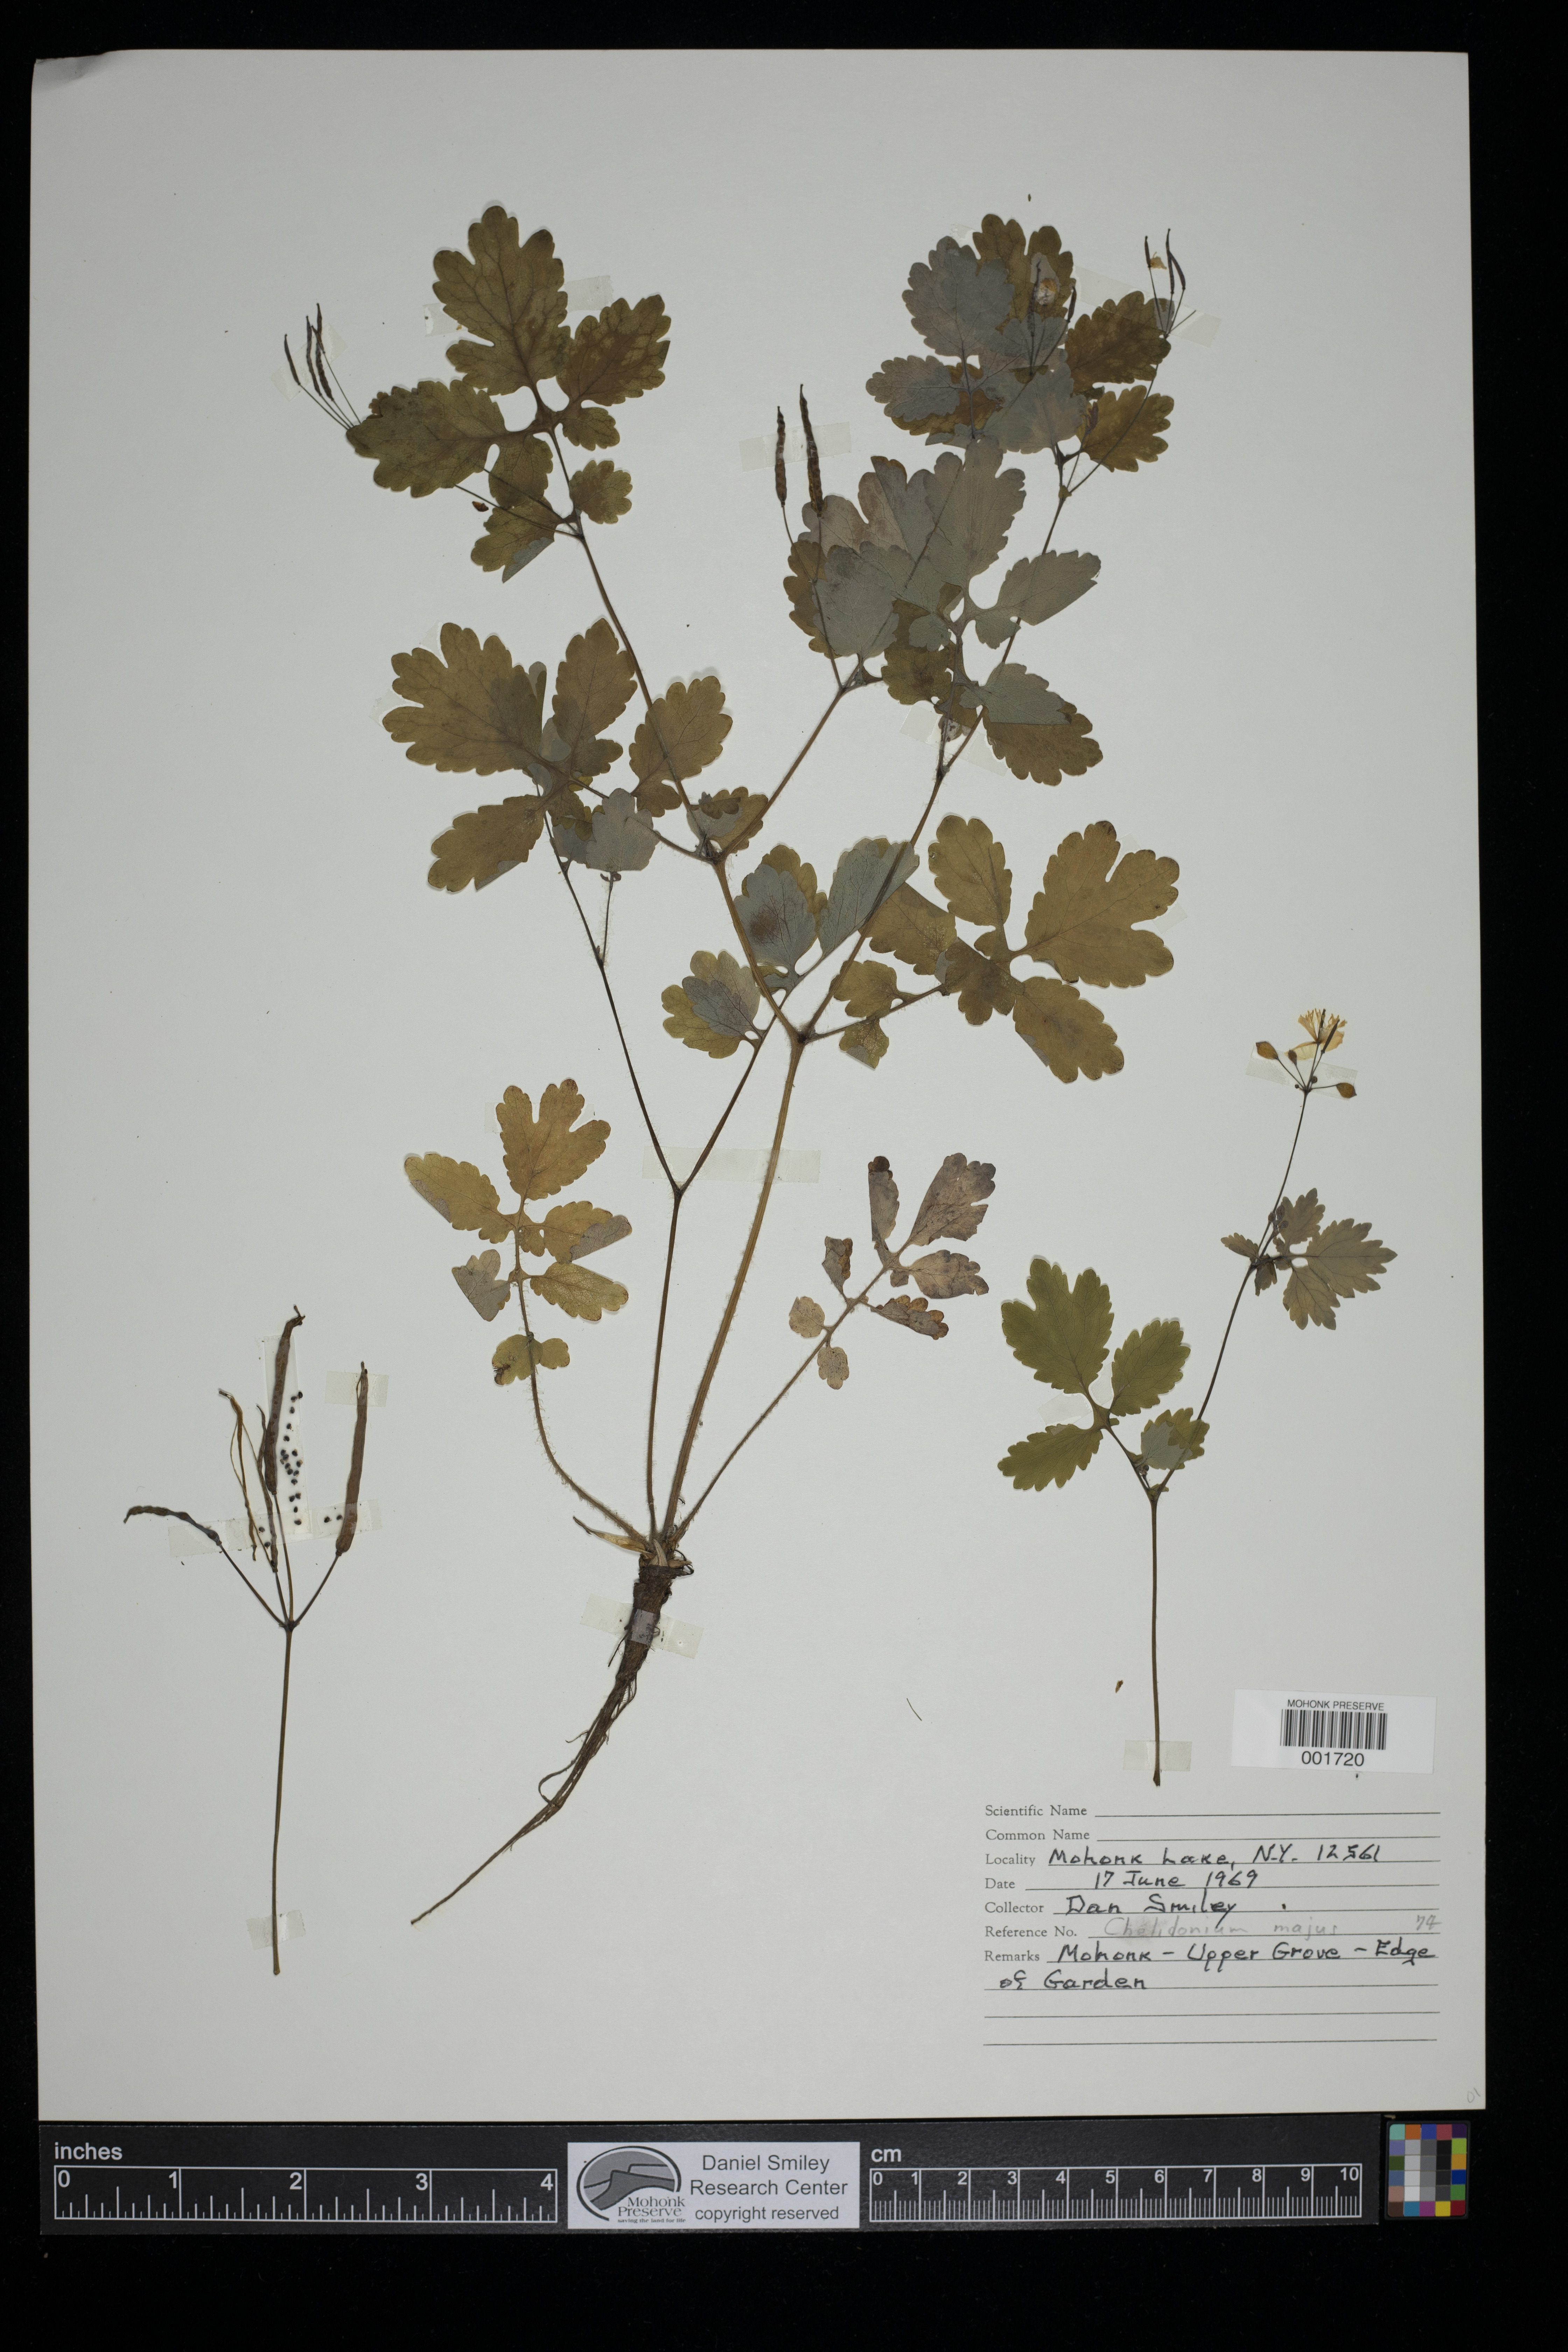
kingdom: Plantae
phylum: Tracheophyta
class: Magnoliopsida
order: Ranunculales
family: Papaveraceae
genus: Chelidonium
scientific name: Chelidonium majus
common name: Greater celandine
